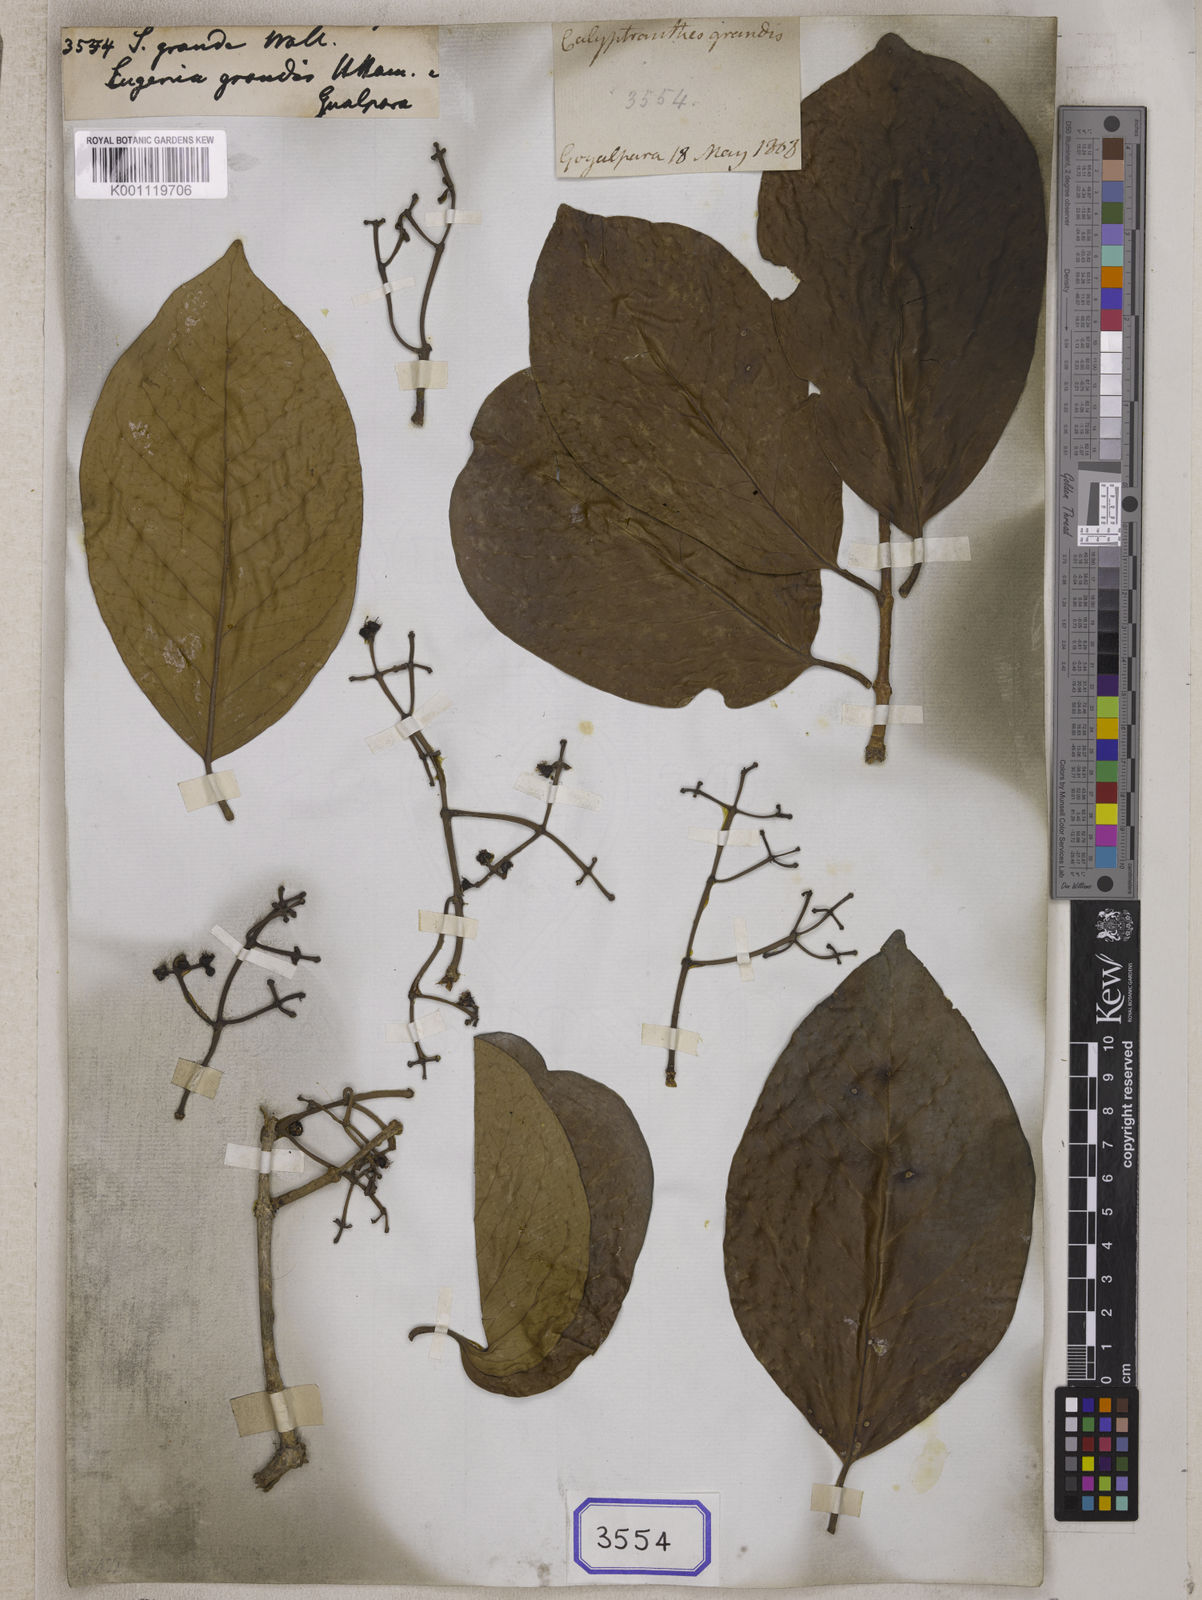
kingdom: Plantae
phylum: Tracheophyta
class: Magnoliopsida
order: Myrtales
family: Myrtaceae
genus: Syzygium
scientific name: Syzygium grande
